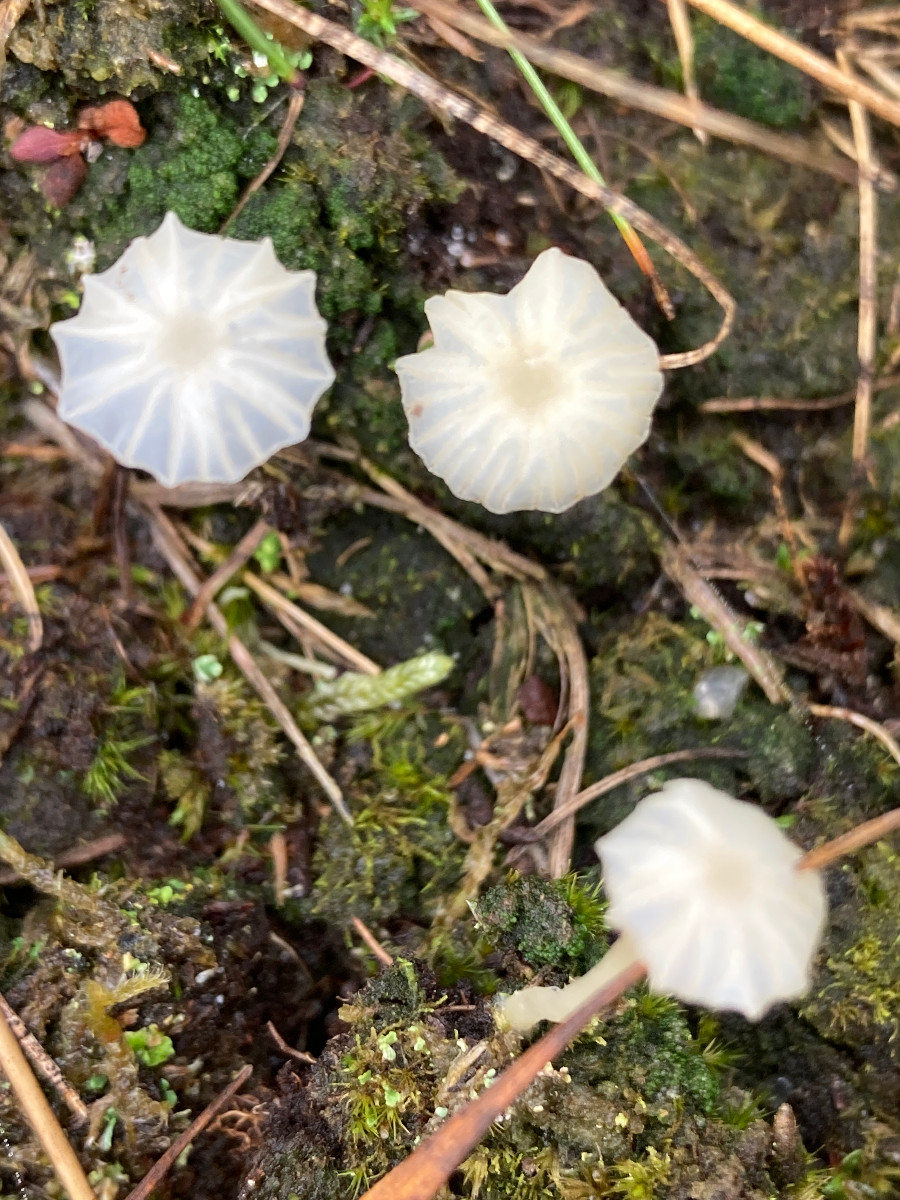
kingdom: Fungi
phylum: Basidiomycota
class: Agaricomycetes
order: Agaricales
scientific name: Agaricales
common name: champignonordenen
